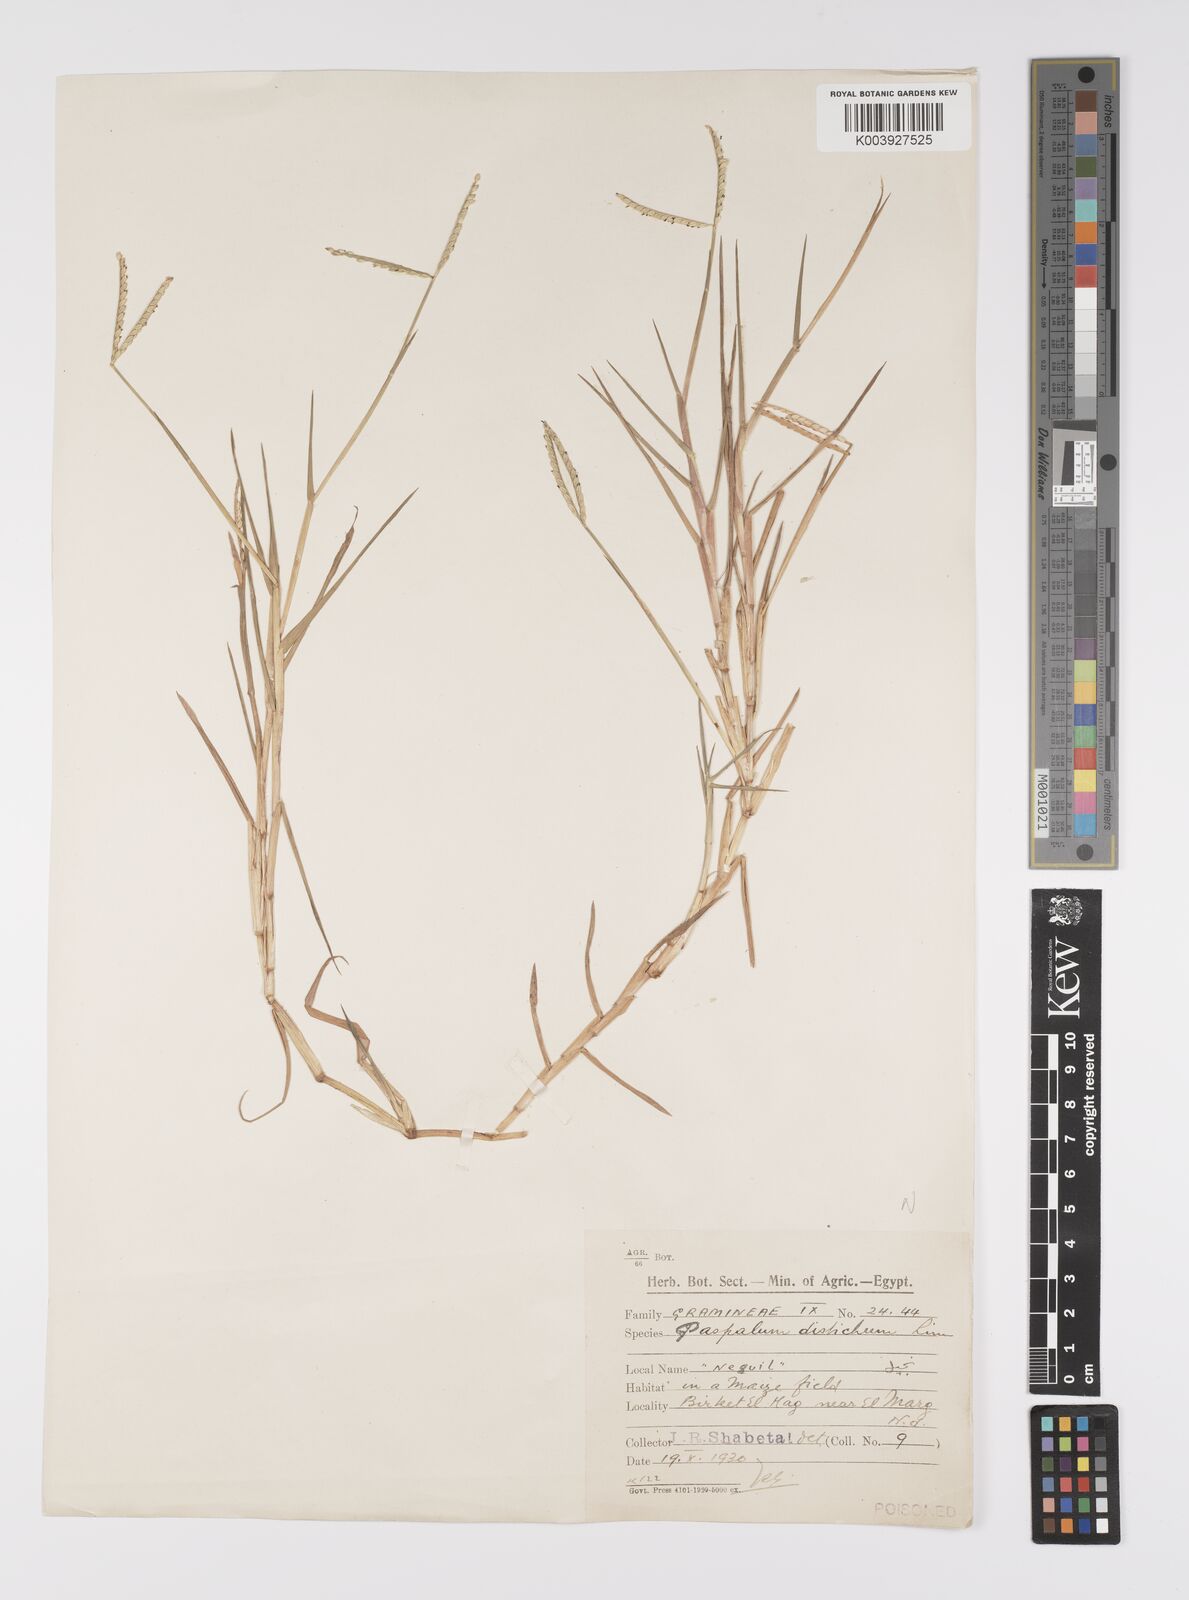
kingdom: Plantae
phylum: Tracheophyta
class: Liliopsida
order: Poales
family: Poaceae
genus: Paspalum
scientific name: Paspalum distichum
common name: Knotgrass
